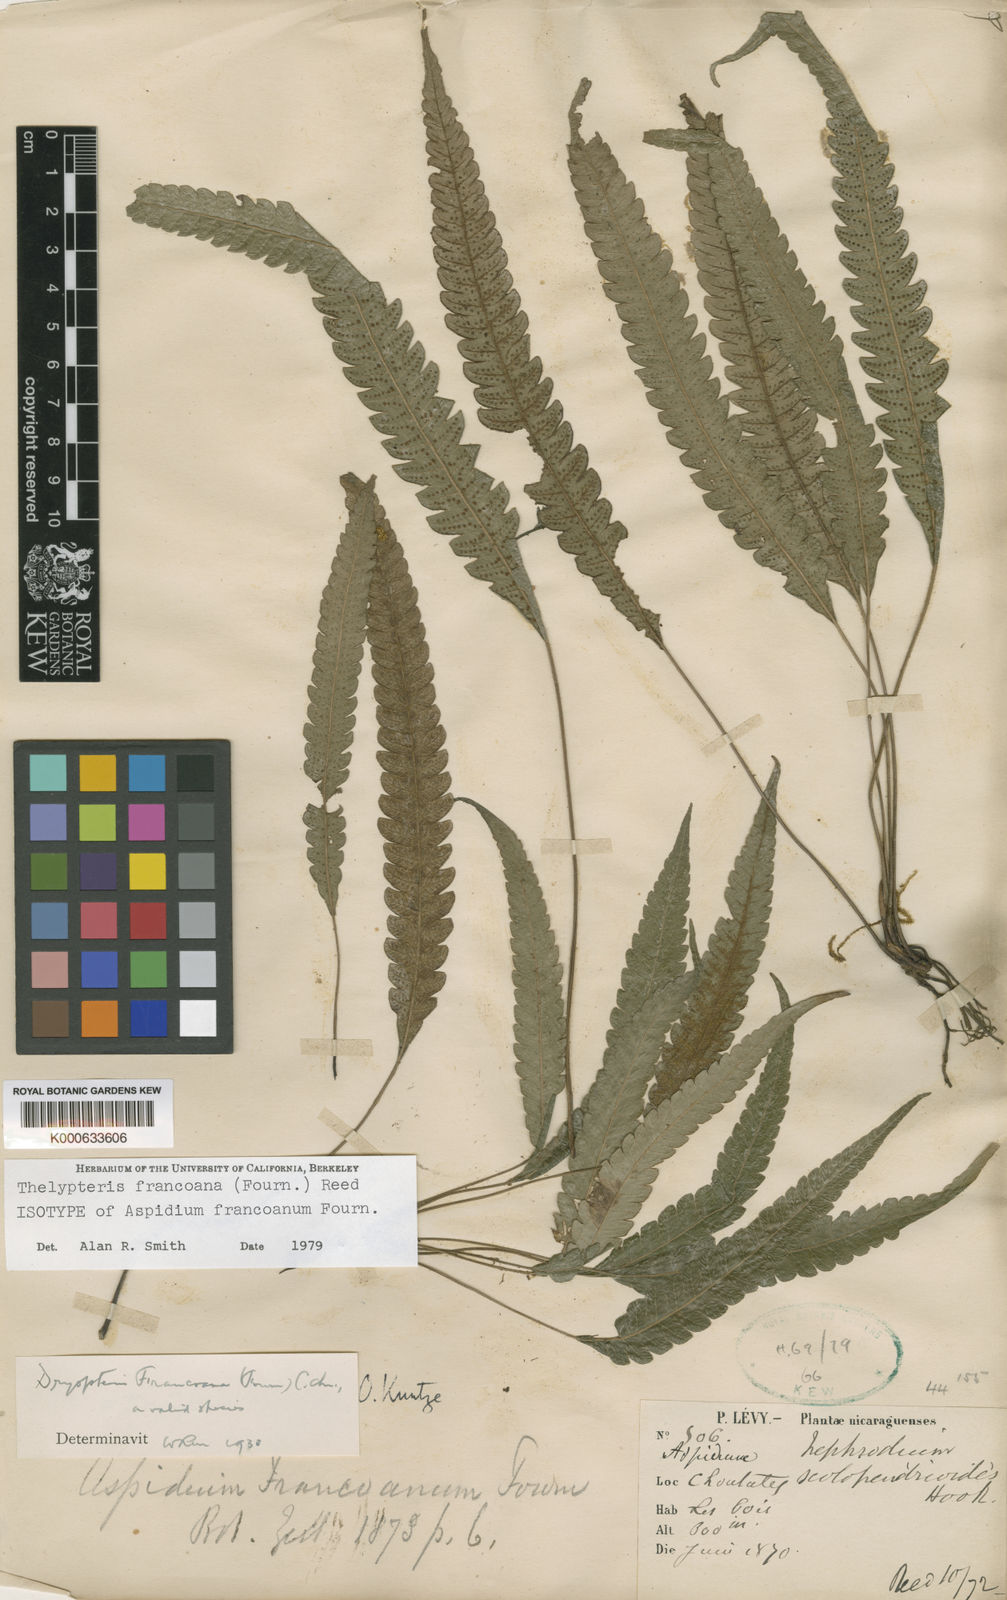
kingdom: Plantae
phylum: Tracheophyta
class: Polypodiopsida
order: Polypodiales
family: Thelypteridaceae
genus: Goniopteris
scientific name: Goniopteris
